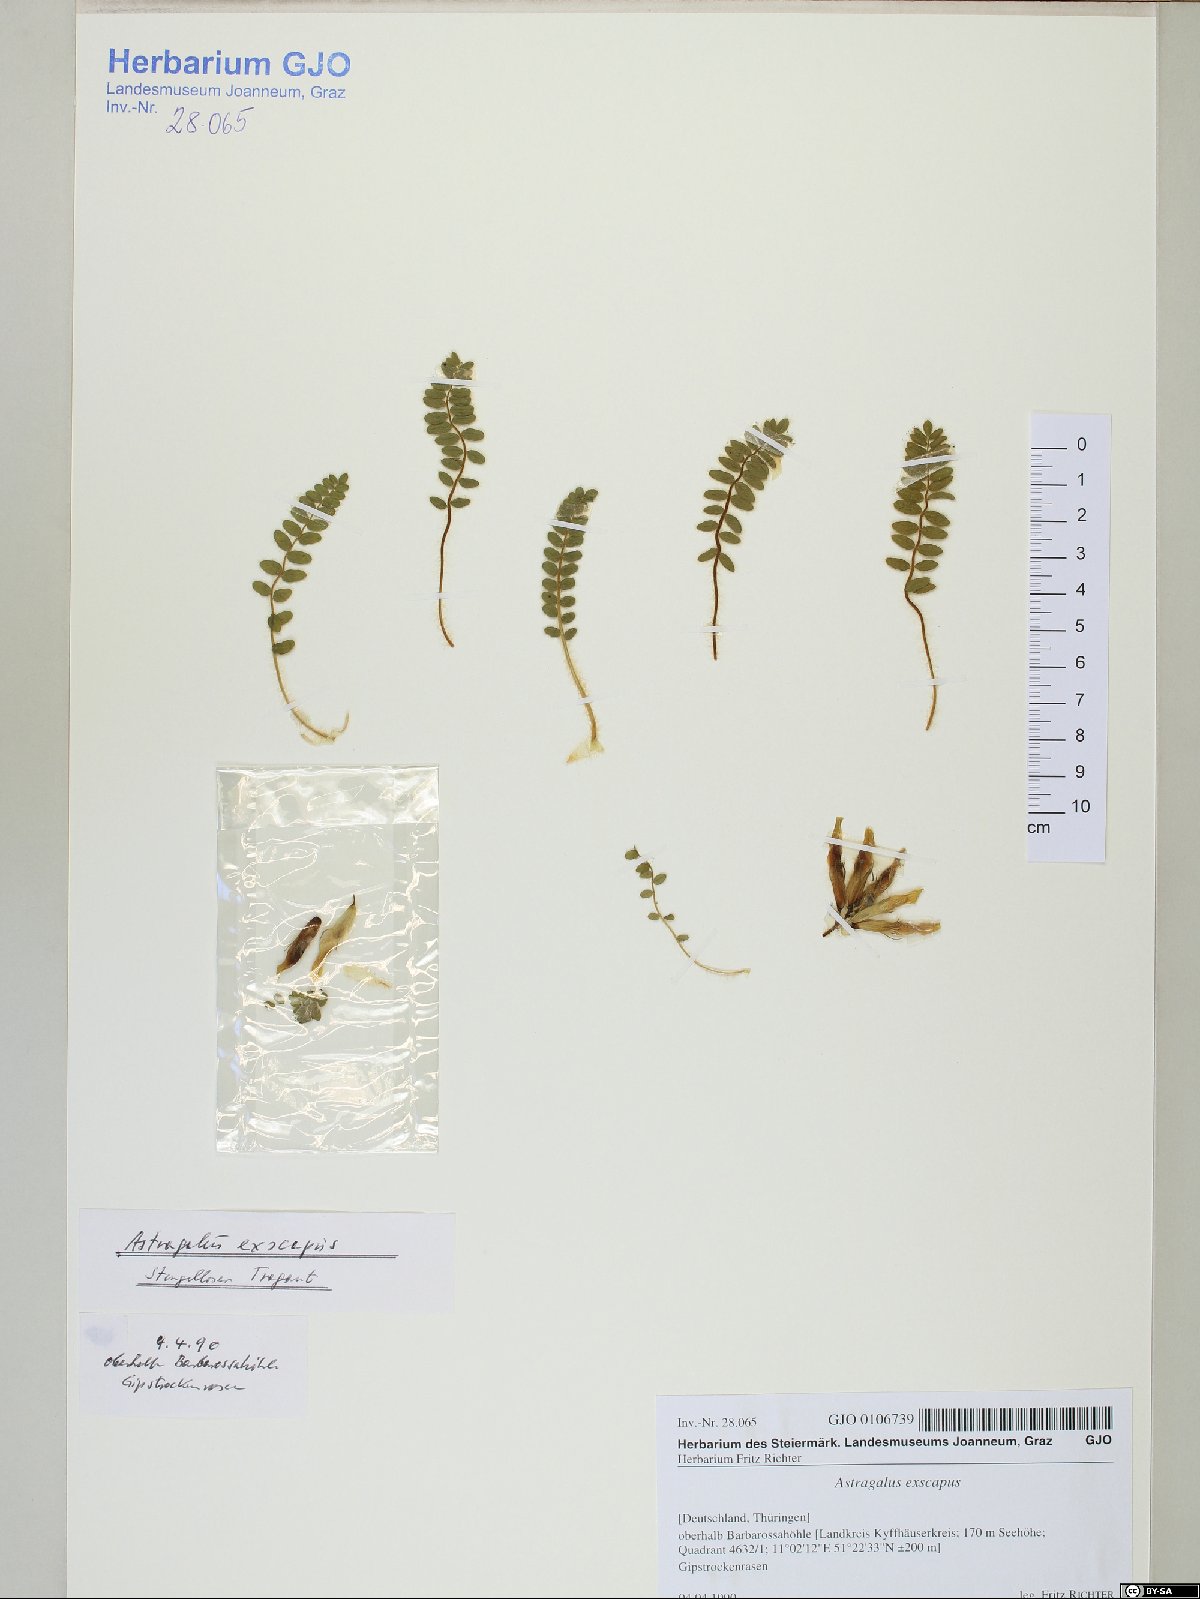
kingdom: Plantae
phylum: Tracheophyta
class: Magnoliopsida
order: Fabales
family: Fabaceae
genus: Astragalus
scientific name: Astragalus exscapus
